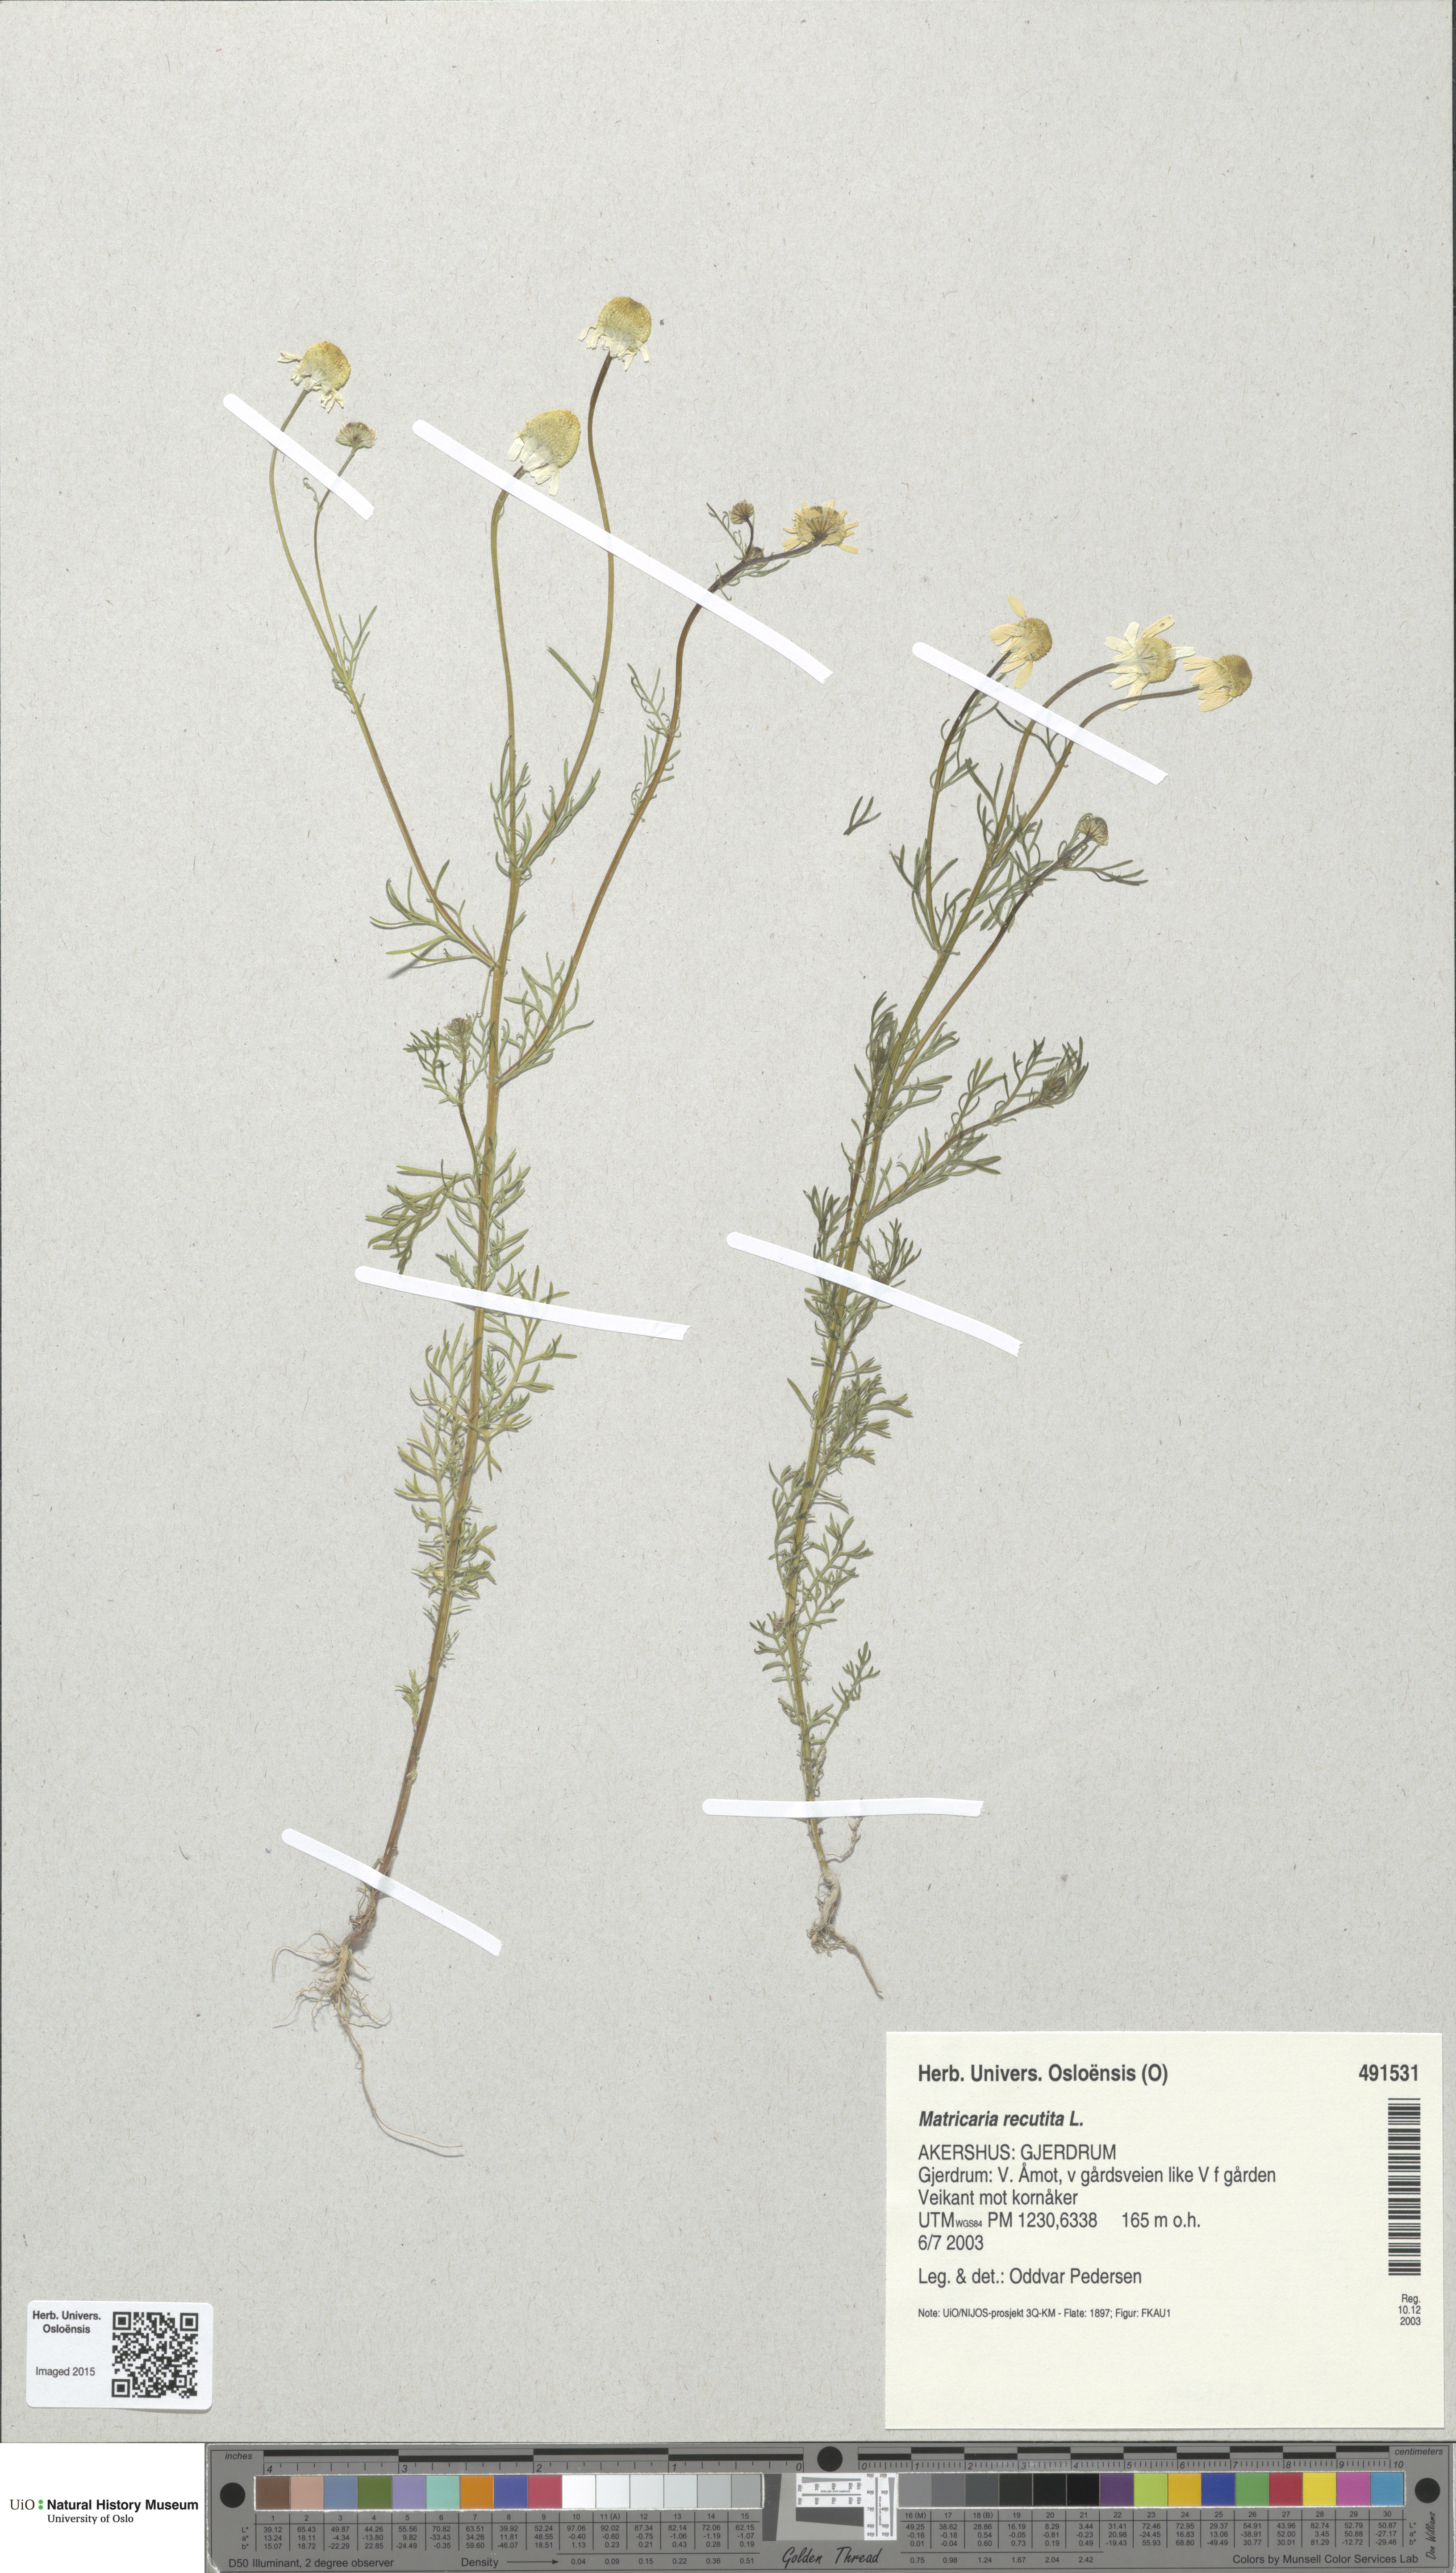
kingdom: Plantae
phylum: Tracheophyta
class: Magnoliopsida
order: Asterales
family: Asteraceae
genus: Matricaria
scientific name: Matricaria chamomilla
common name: Scented mayweed
